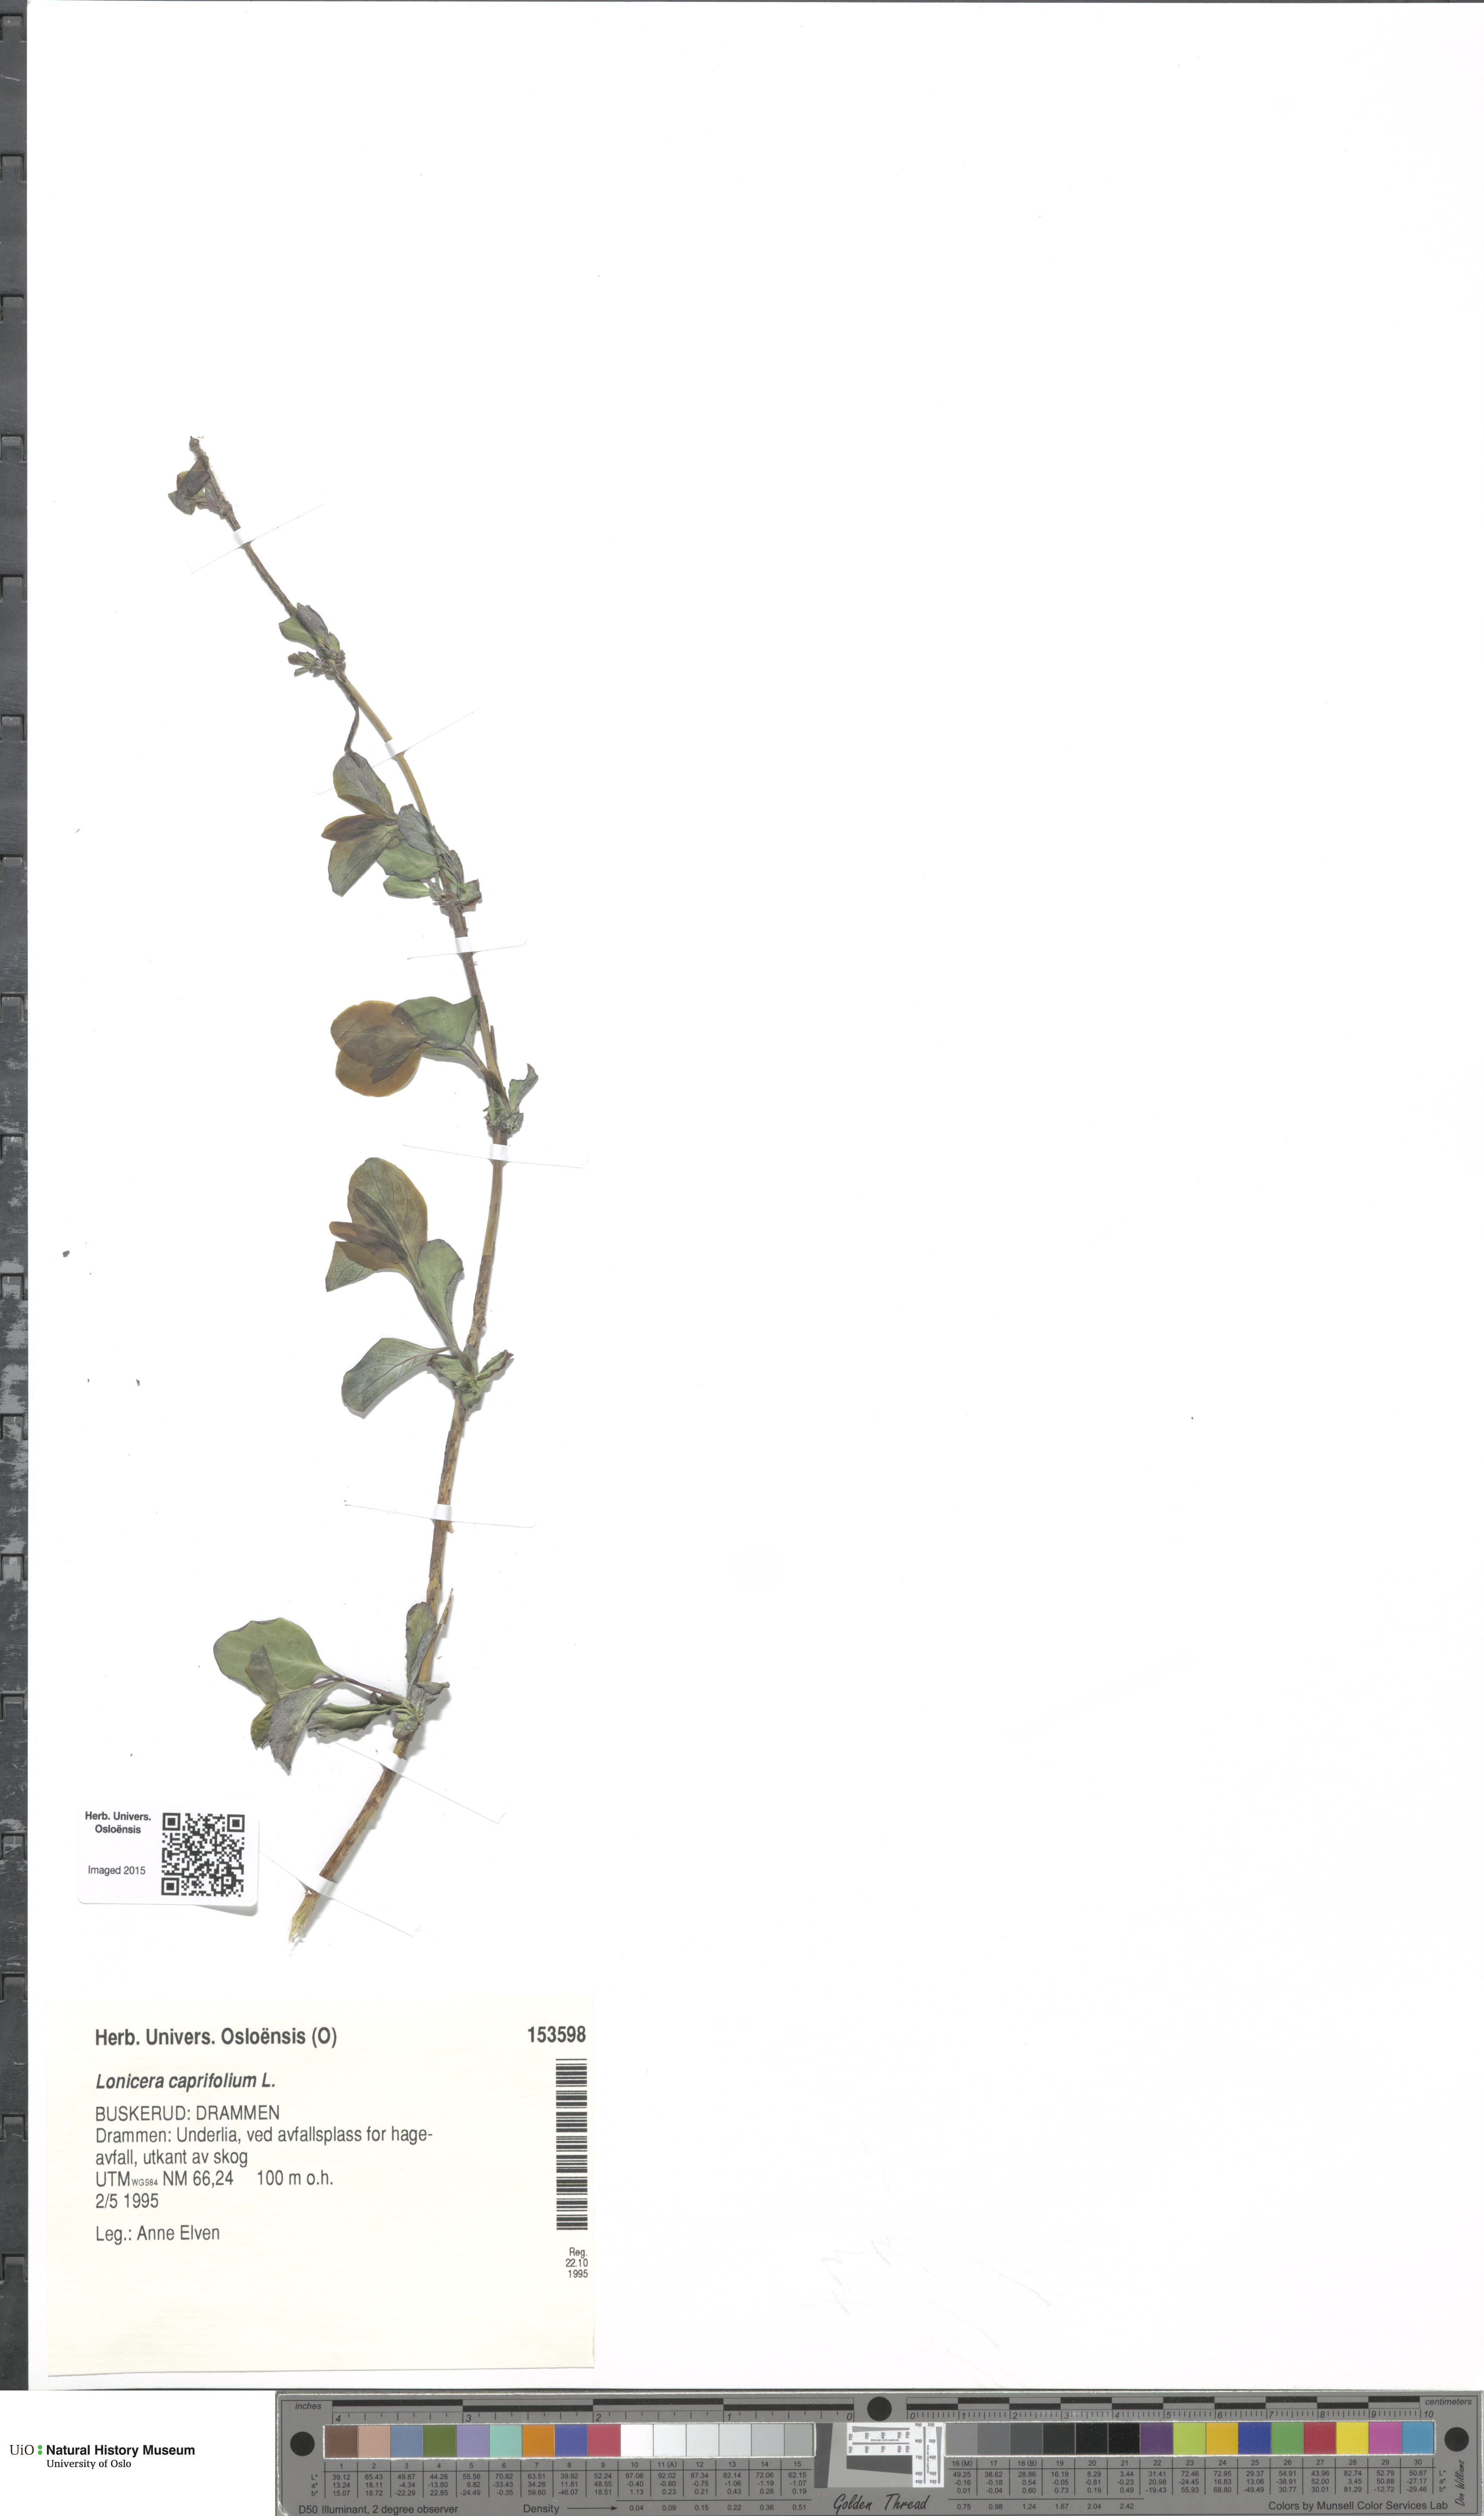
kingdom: Plantae
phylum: Tracheophyta
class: Magnoliopsida
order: Dipsacales
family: Caprifoliaceae
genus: Lonicera
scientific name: Lonicera caprifolium
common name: Perfoliate honeysuckle
